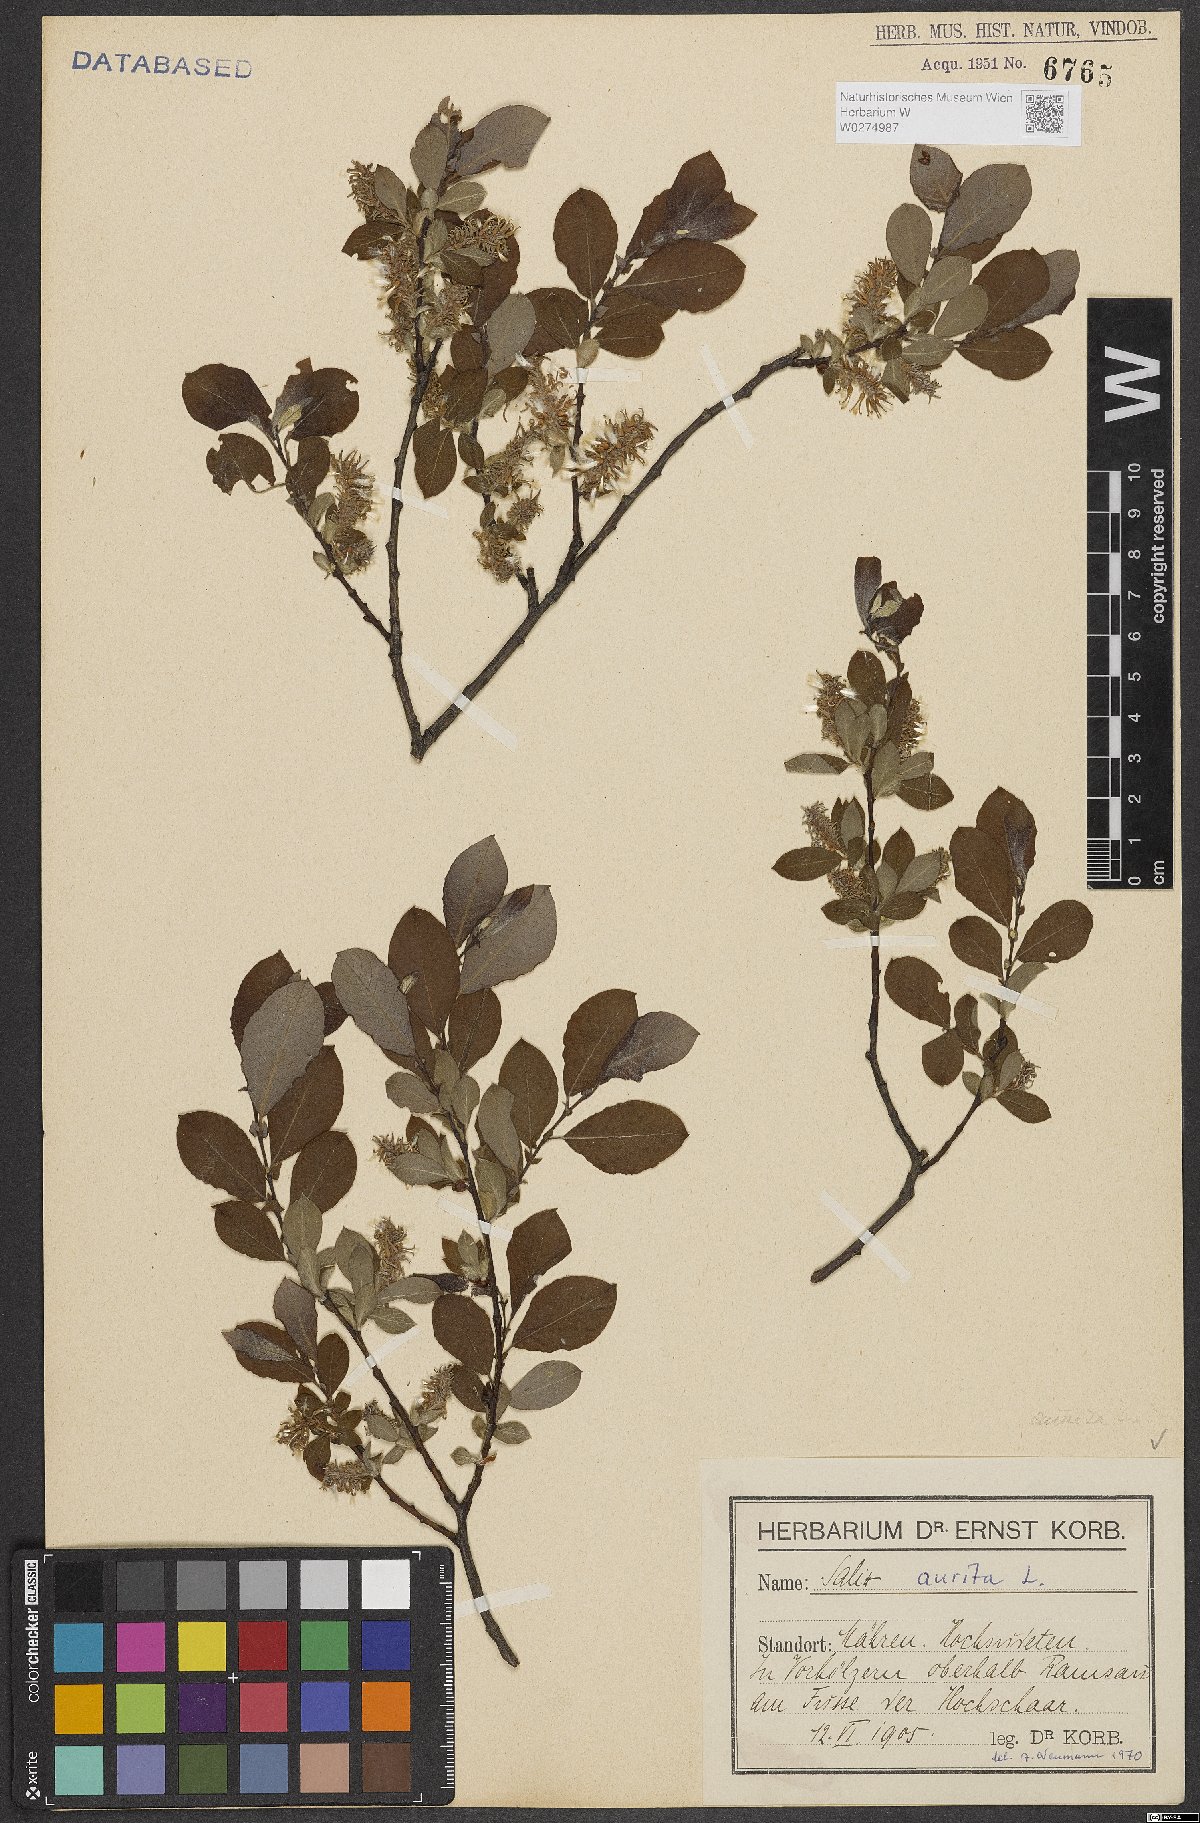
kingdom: Plantae
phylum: Tracheophyta
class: Magnoliopsida
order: Malpighiales
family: Salicaceae
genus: Salix
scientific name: Salix aurita
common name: Eared willow
